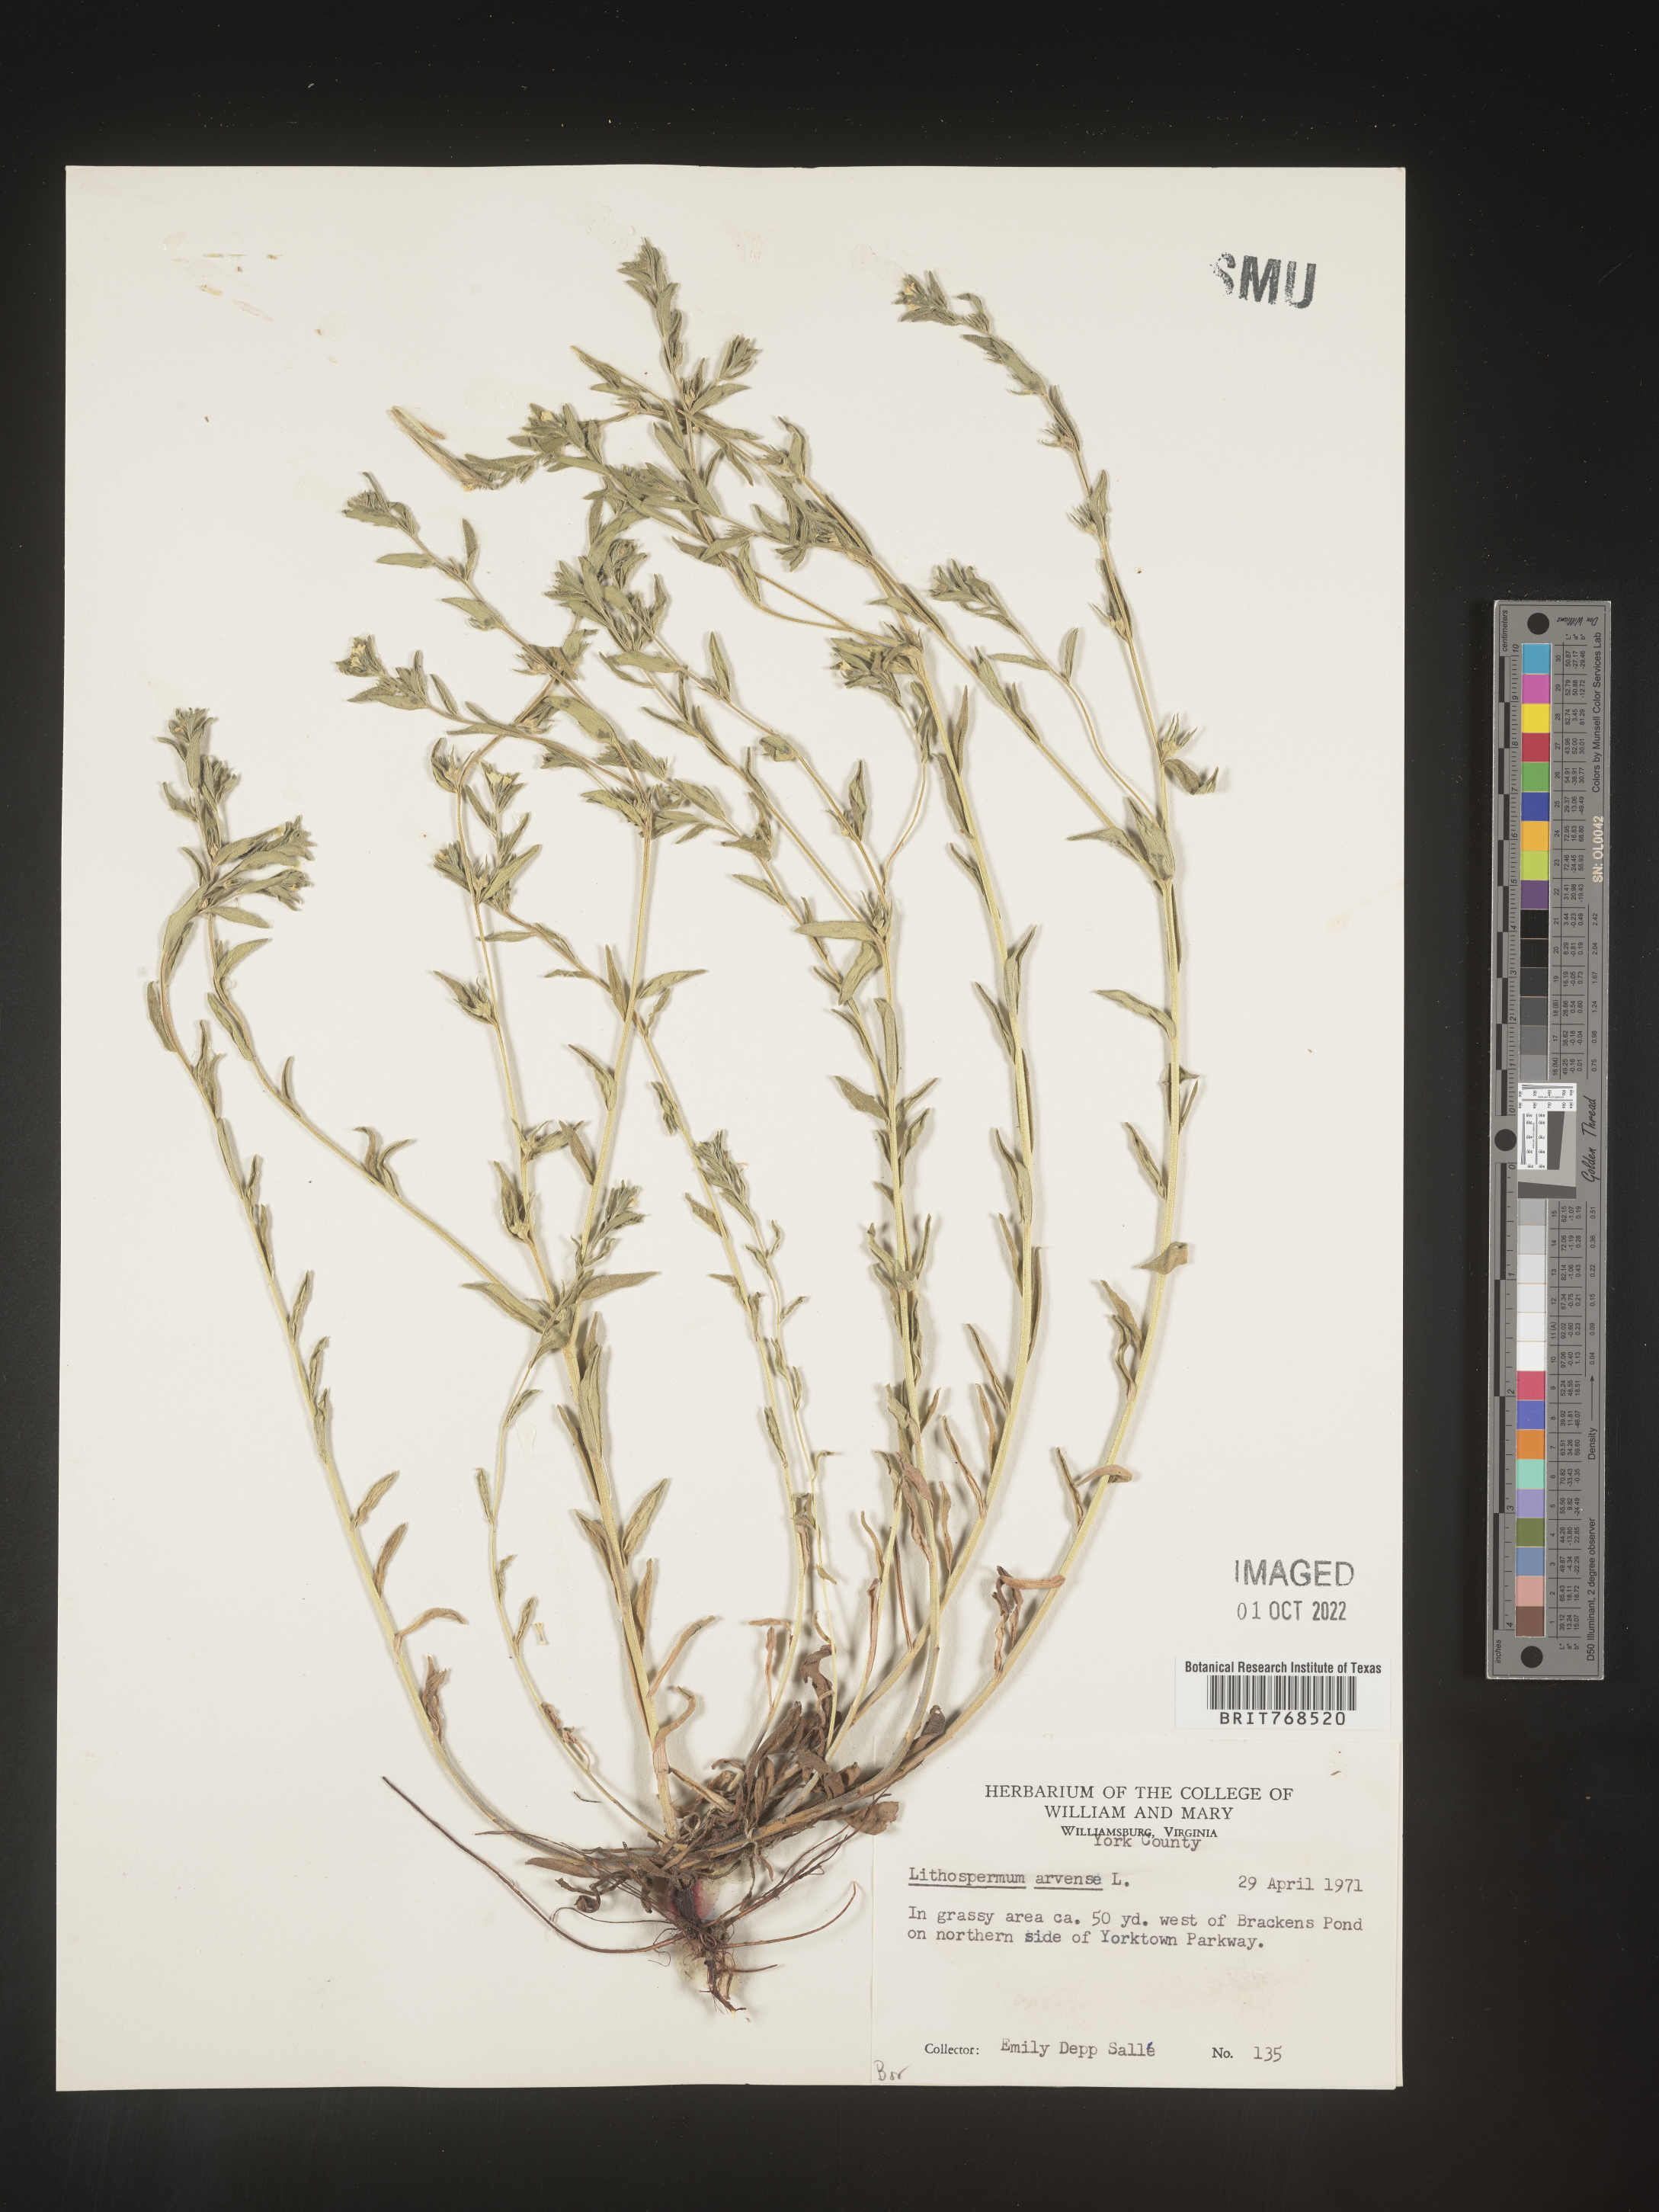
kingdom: Plantae
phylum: Tracheophyta
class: Magnoliopsida
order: Boraginales
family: Boraginaceae
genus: Lithospermum
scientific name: Lithospermum
